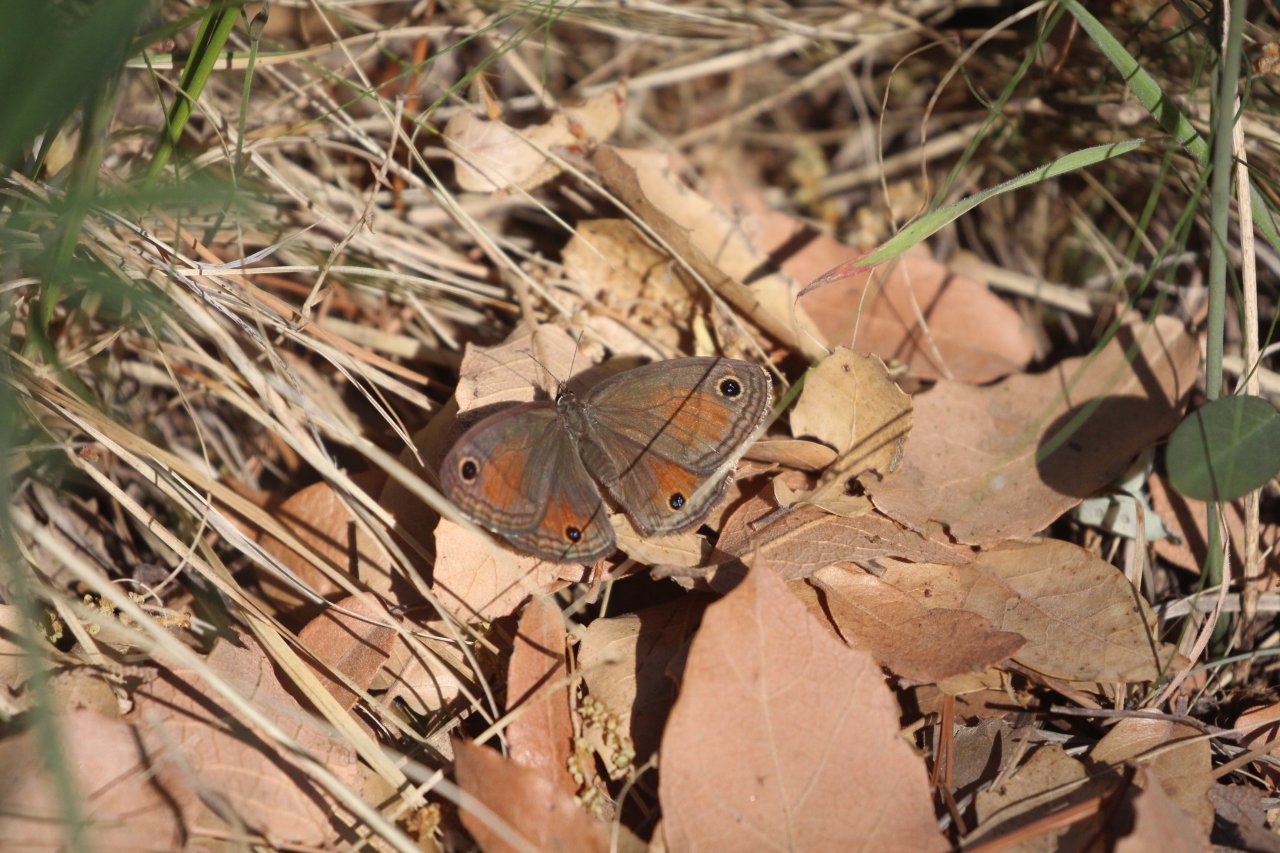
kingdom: Animalia
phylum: Arthropoda
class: Insecta
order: Lepidoptera
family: Nymphalidae
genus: Euptychia
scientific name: Euptychia rubricata
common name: Red Satyr
